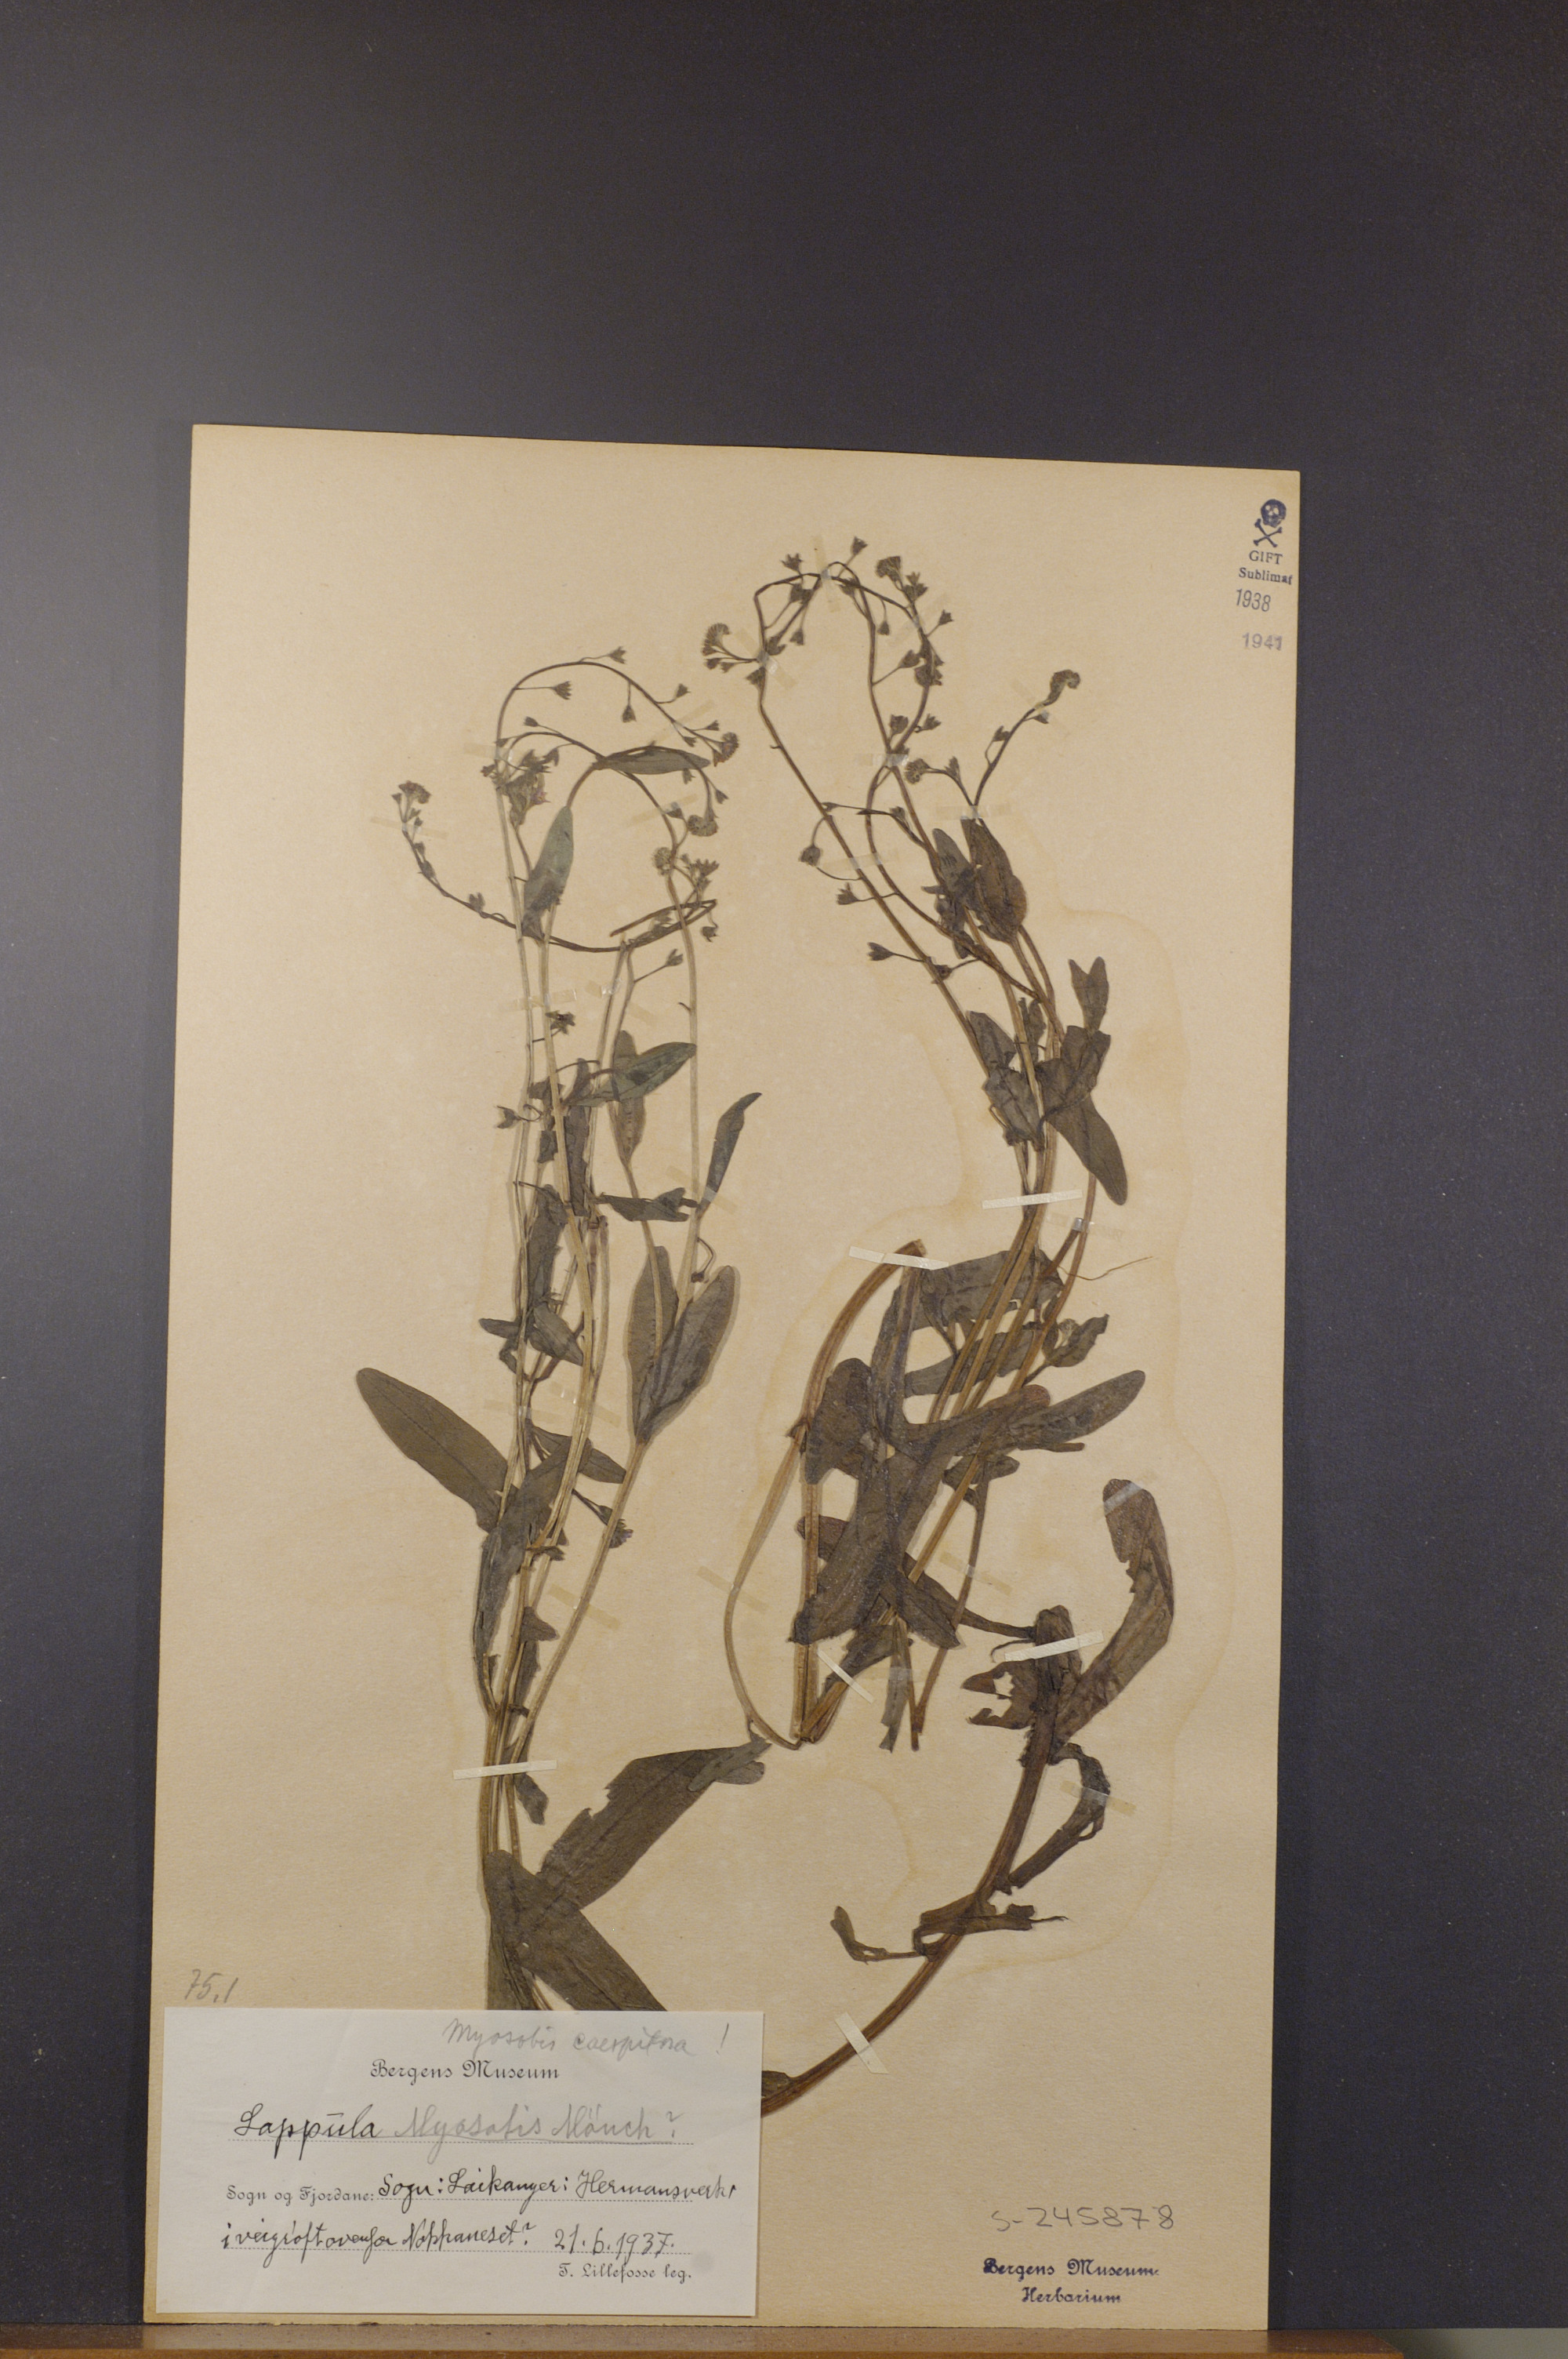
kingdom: Plantae
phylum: Tracheophyta
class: Magnoliopsida
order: Boraginales
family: Boraginaceae
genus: Myosotis
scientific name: Myosotis laxa
